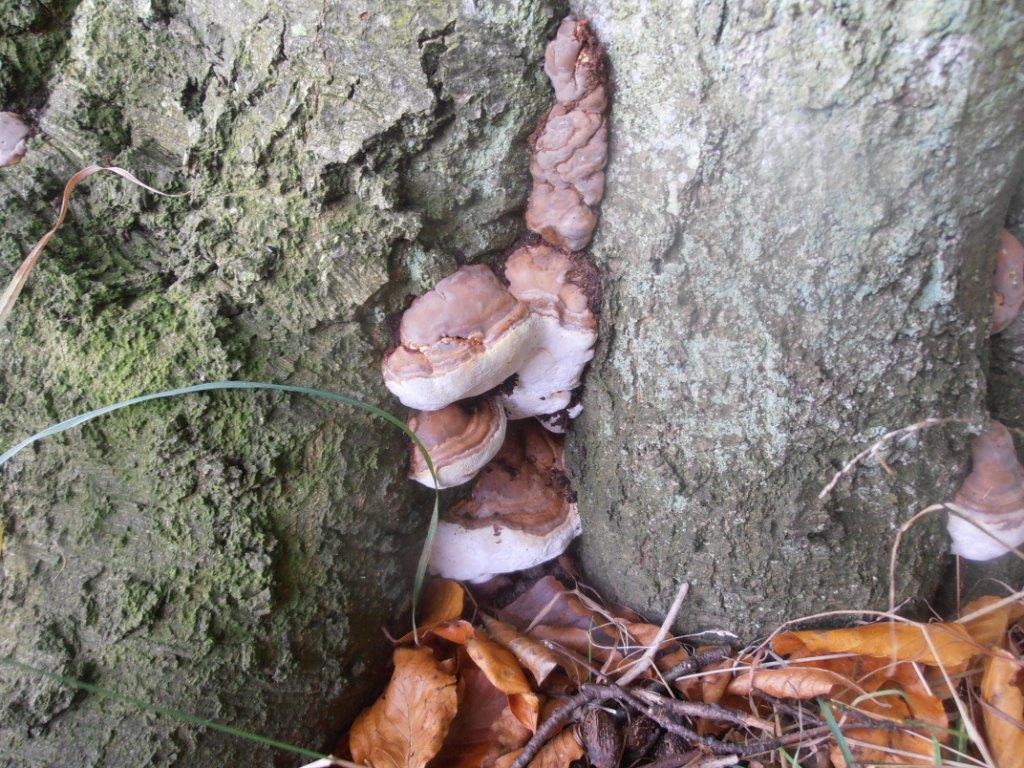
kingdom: Fungi
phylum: Basidiomycota
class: Agaricomycetes
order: Polyporales
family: Polyporaceae
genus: Ganoderma
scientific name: Ganoderma pfeifferi
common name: kobberrød lakporesvamp
